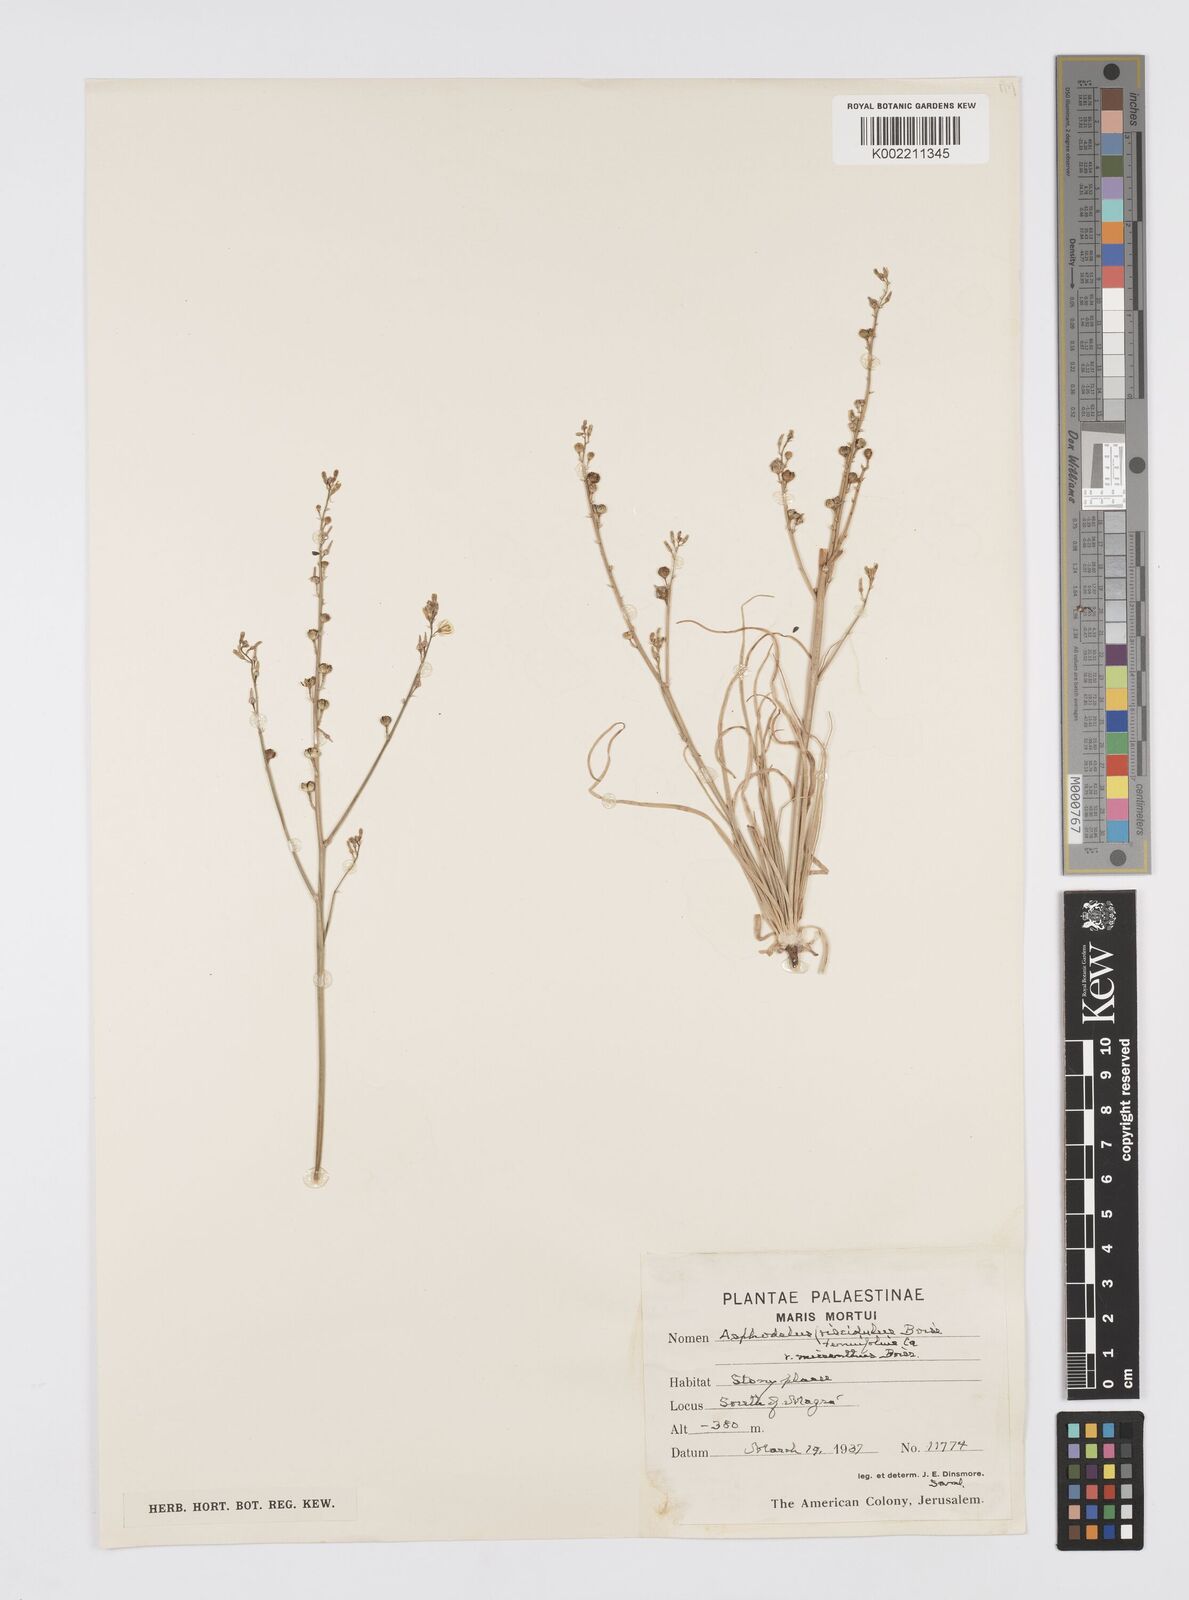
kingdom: Plantae
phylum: Tracheophyta
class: Liliopsida
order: Asparagales
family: Asphodelaceae
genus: Asphodelus
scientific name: Asphodelus tenuifolius
